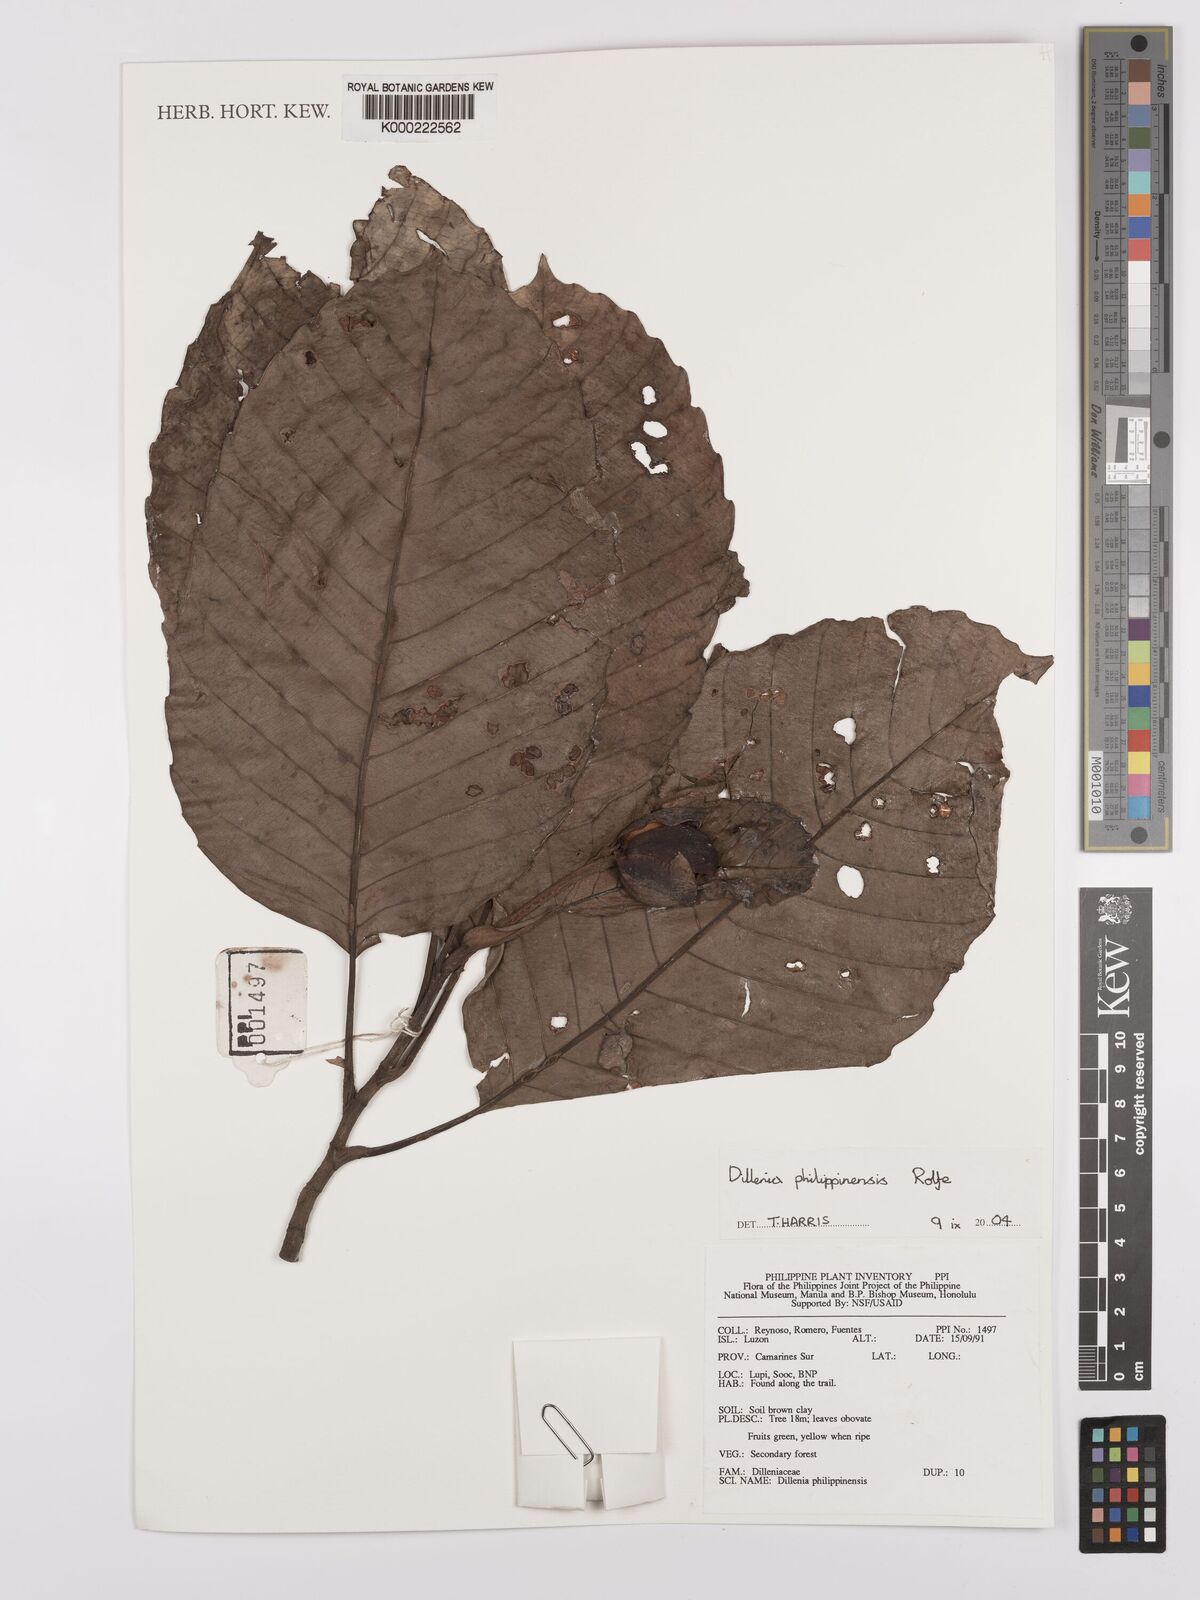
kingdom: Plantae
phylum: Tracheophyta
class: Magnoliopsida
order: Dilleniales
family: Dilleniaceae
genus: Dillenia
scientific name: Dillenia philippinensis
